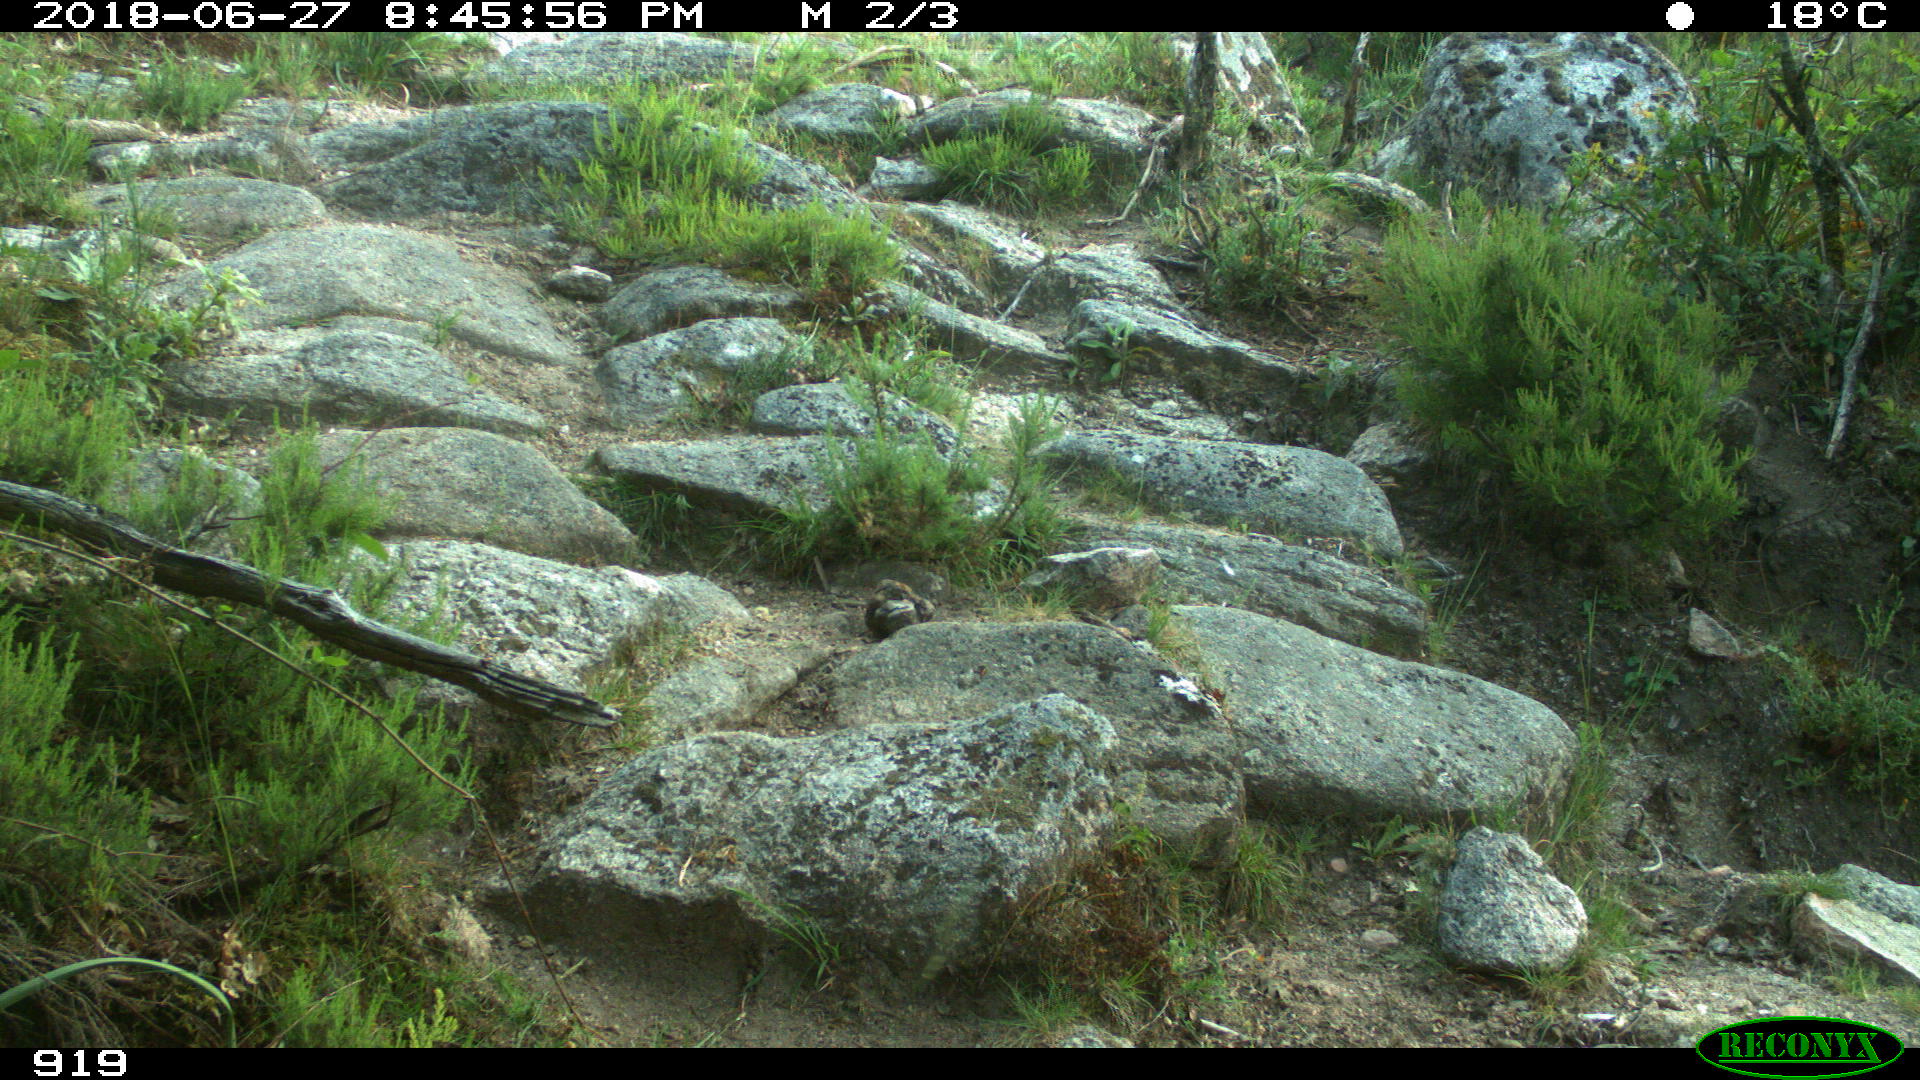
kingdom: Animalia
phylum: Chordata
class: Mammalia
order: Artiodactyla
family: Bovidae
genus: Bos
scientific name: Bos taurus
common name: Domesticated cattle
